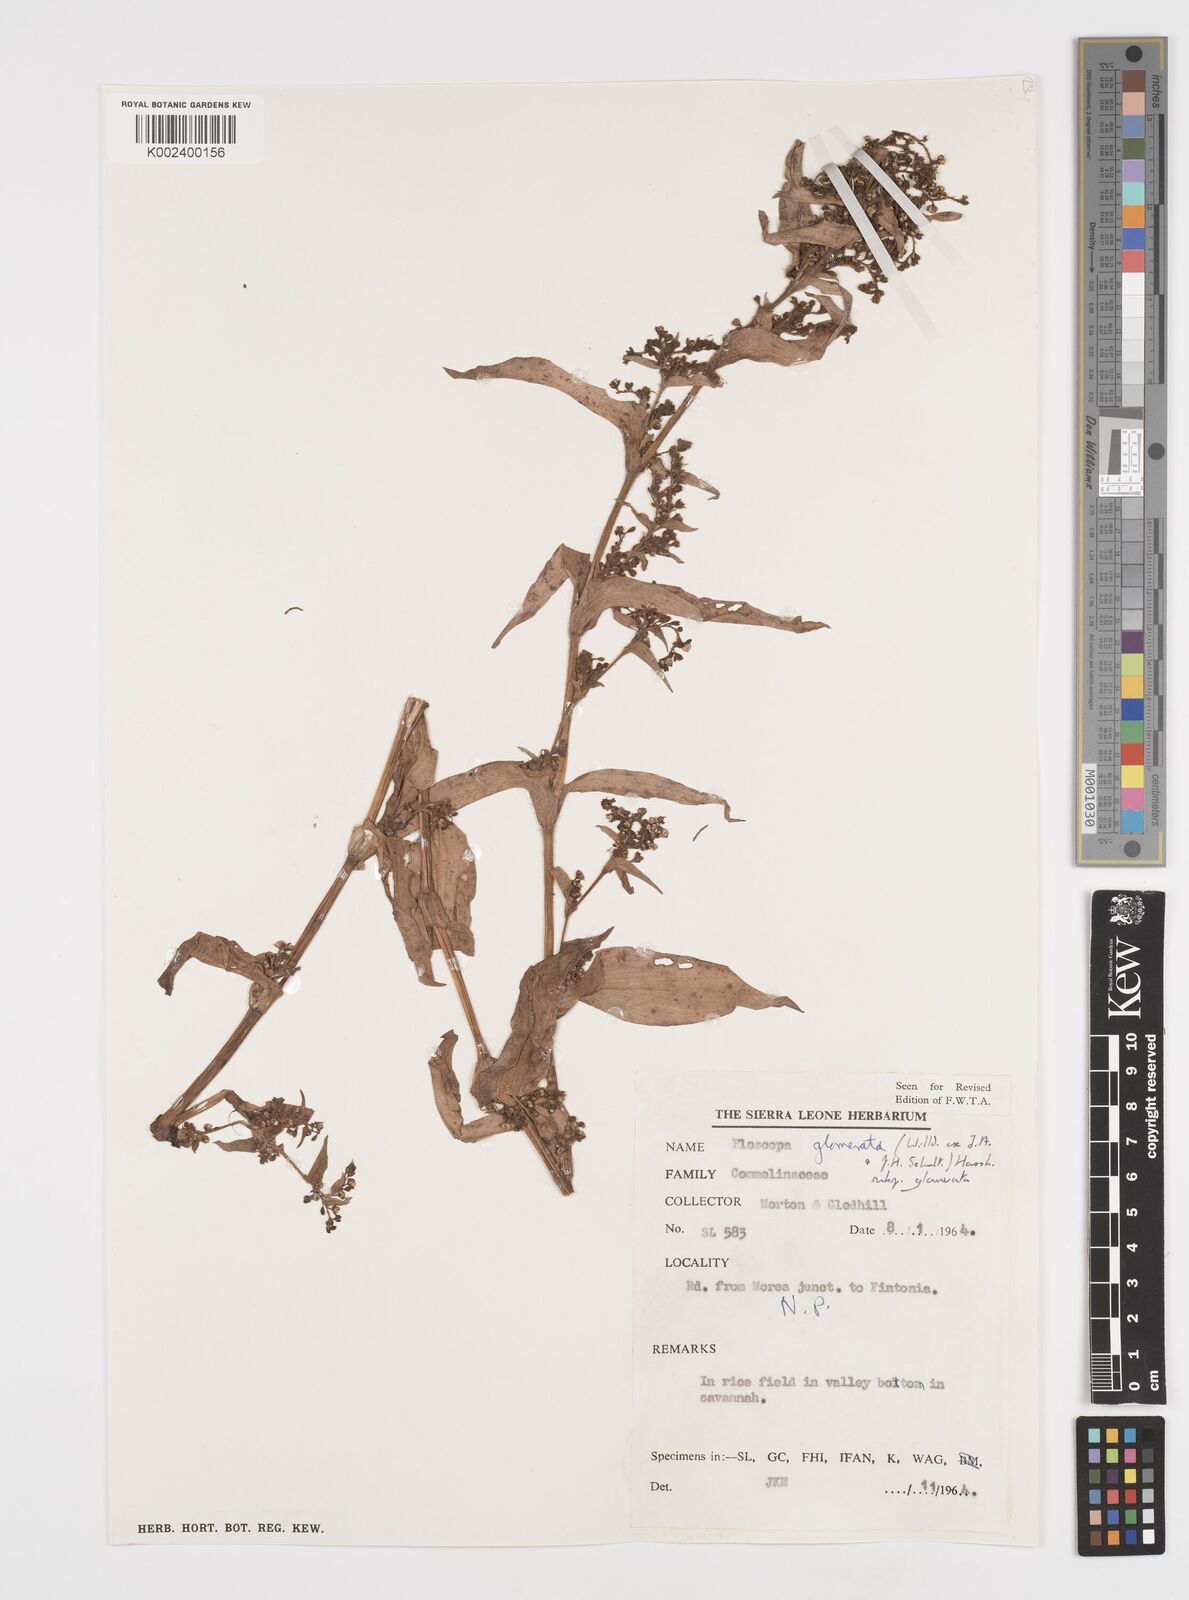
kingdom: Plantae
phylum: Tracheophyta
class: Liliopsida
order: Commelinales
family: Commelinaceae
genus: Floscopa
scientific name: Floscopa glomerata
